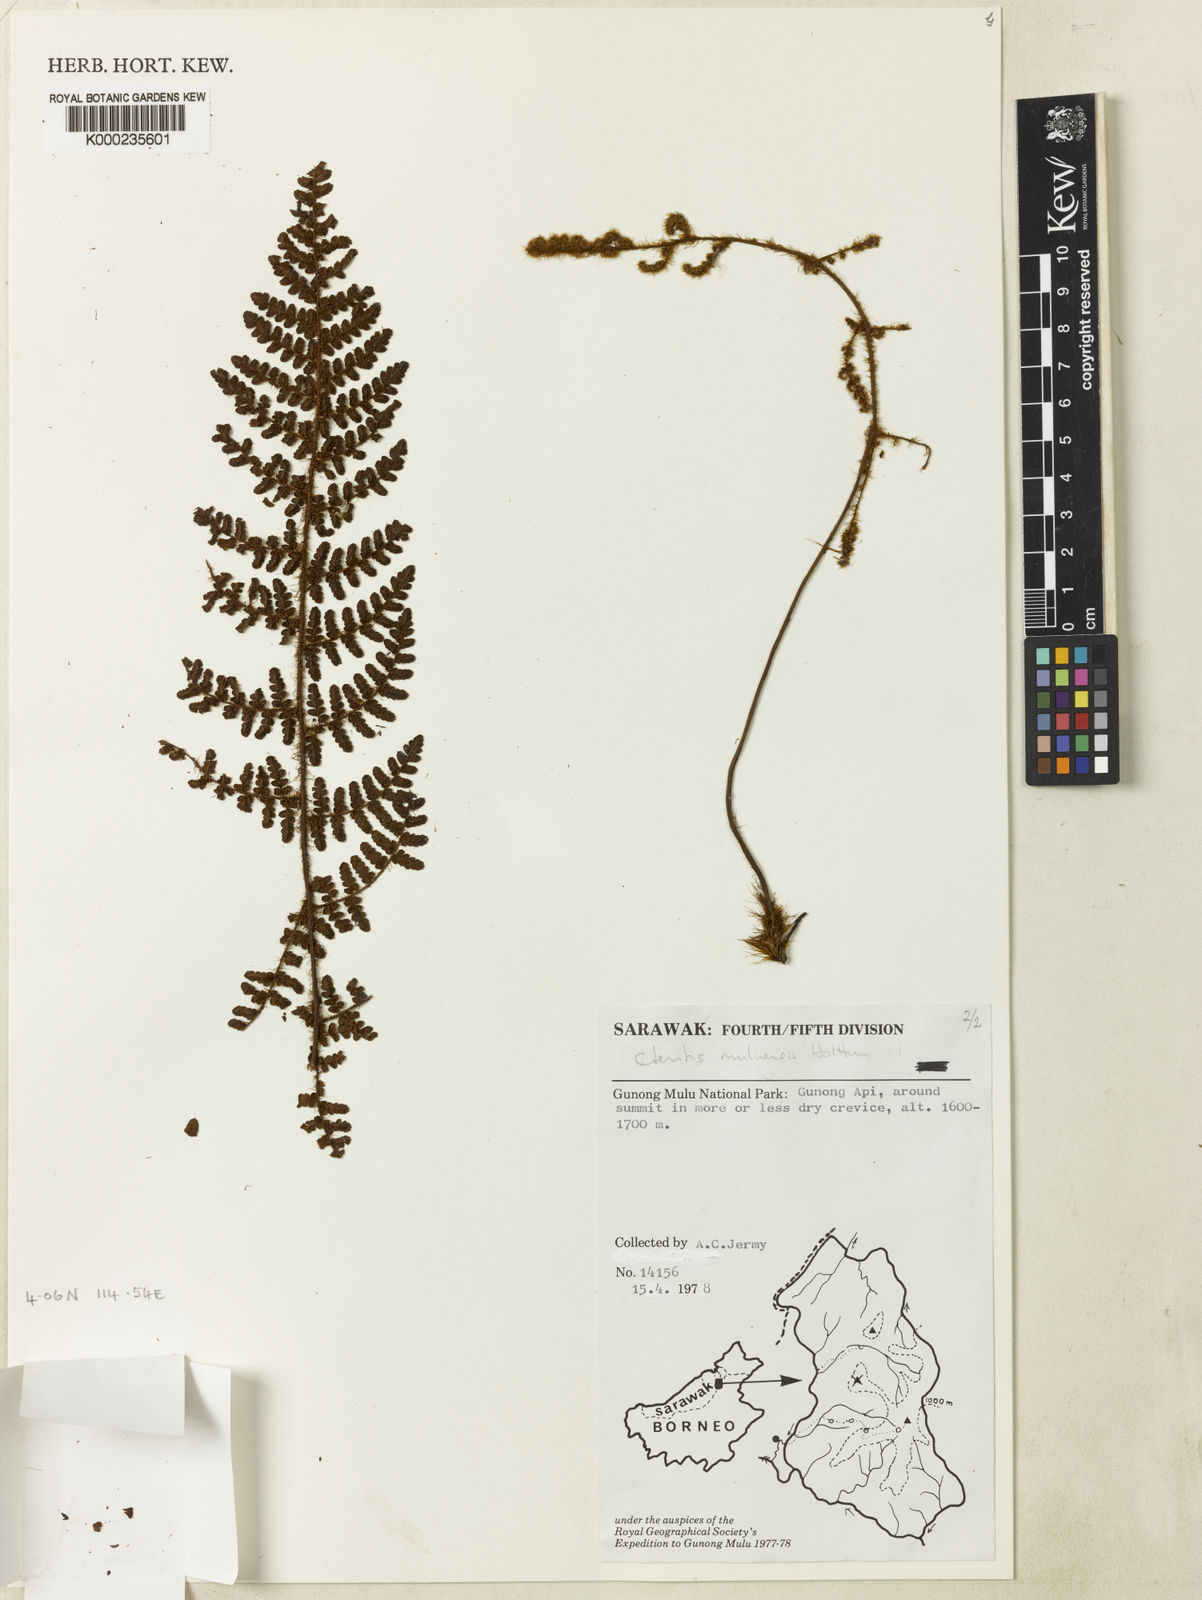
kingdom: Plantae
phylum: Tracheophyta
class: Polypodiopsida
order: Polypodiales
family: Dryopteridaceae
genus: Ctenitis
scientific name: Ctenitis muluensis
